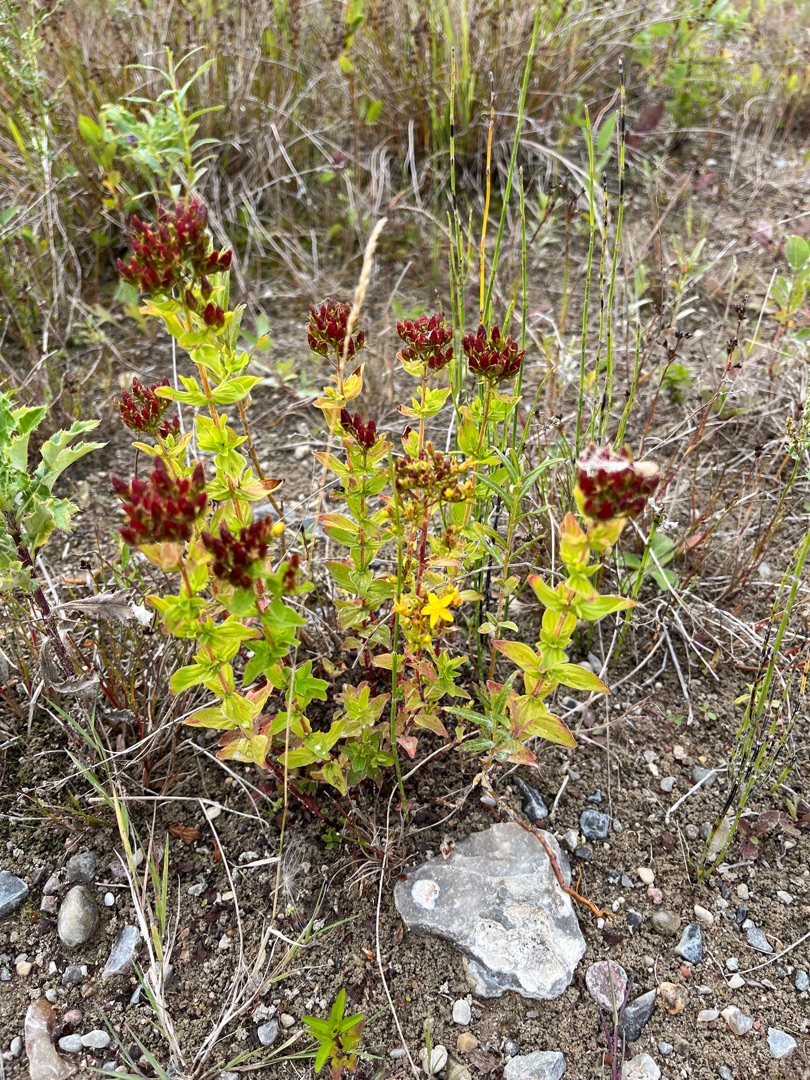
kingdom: Plantae
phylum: Tracheophyta
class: Magnoliopsida
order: Malpighiales
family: Hypericaceae
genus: Hypericum
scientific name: Hypericum tetrapterum
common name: Vinget perikon
